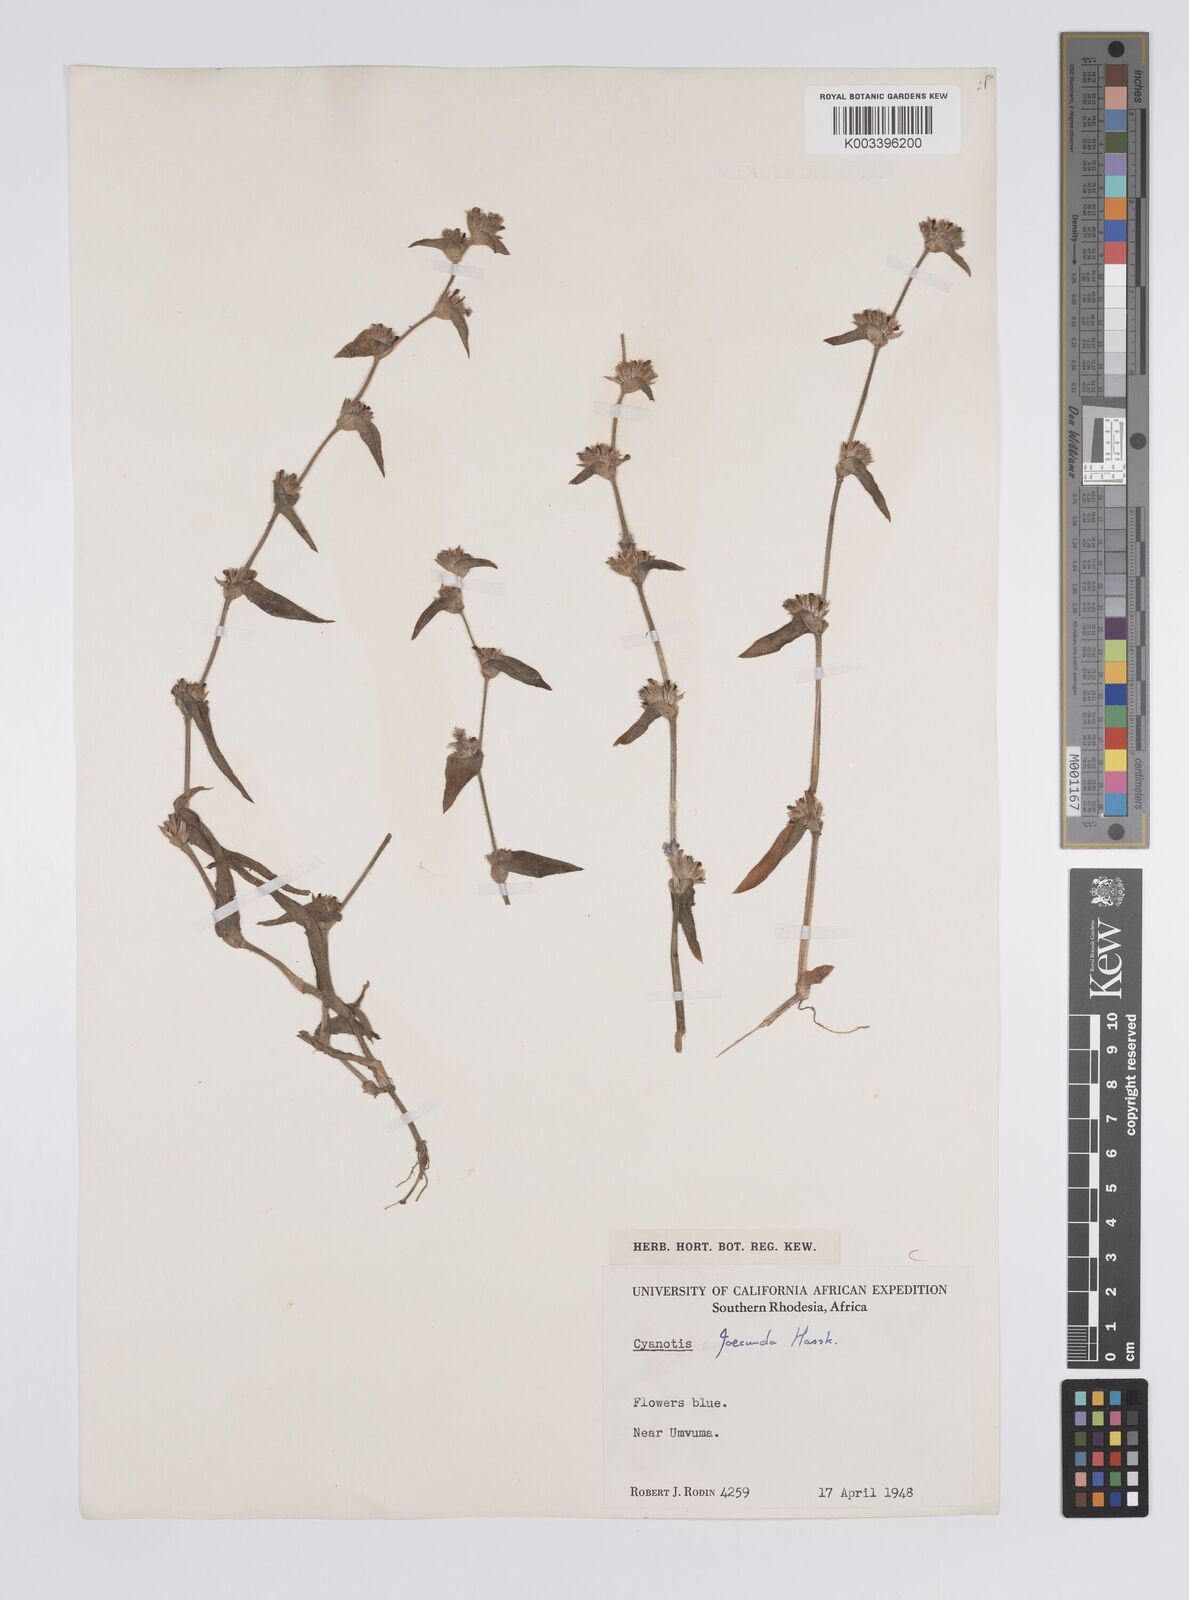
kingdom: Plantae
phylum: Tracheophyta
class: Liliopsida
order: Commelinales
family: Commelinaceae
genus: Cyanotis
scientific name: Cyanotis foecunda
